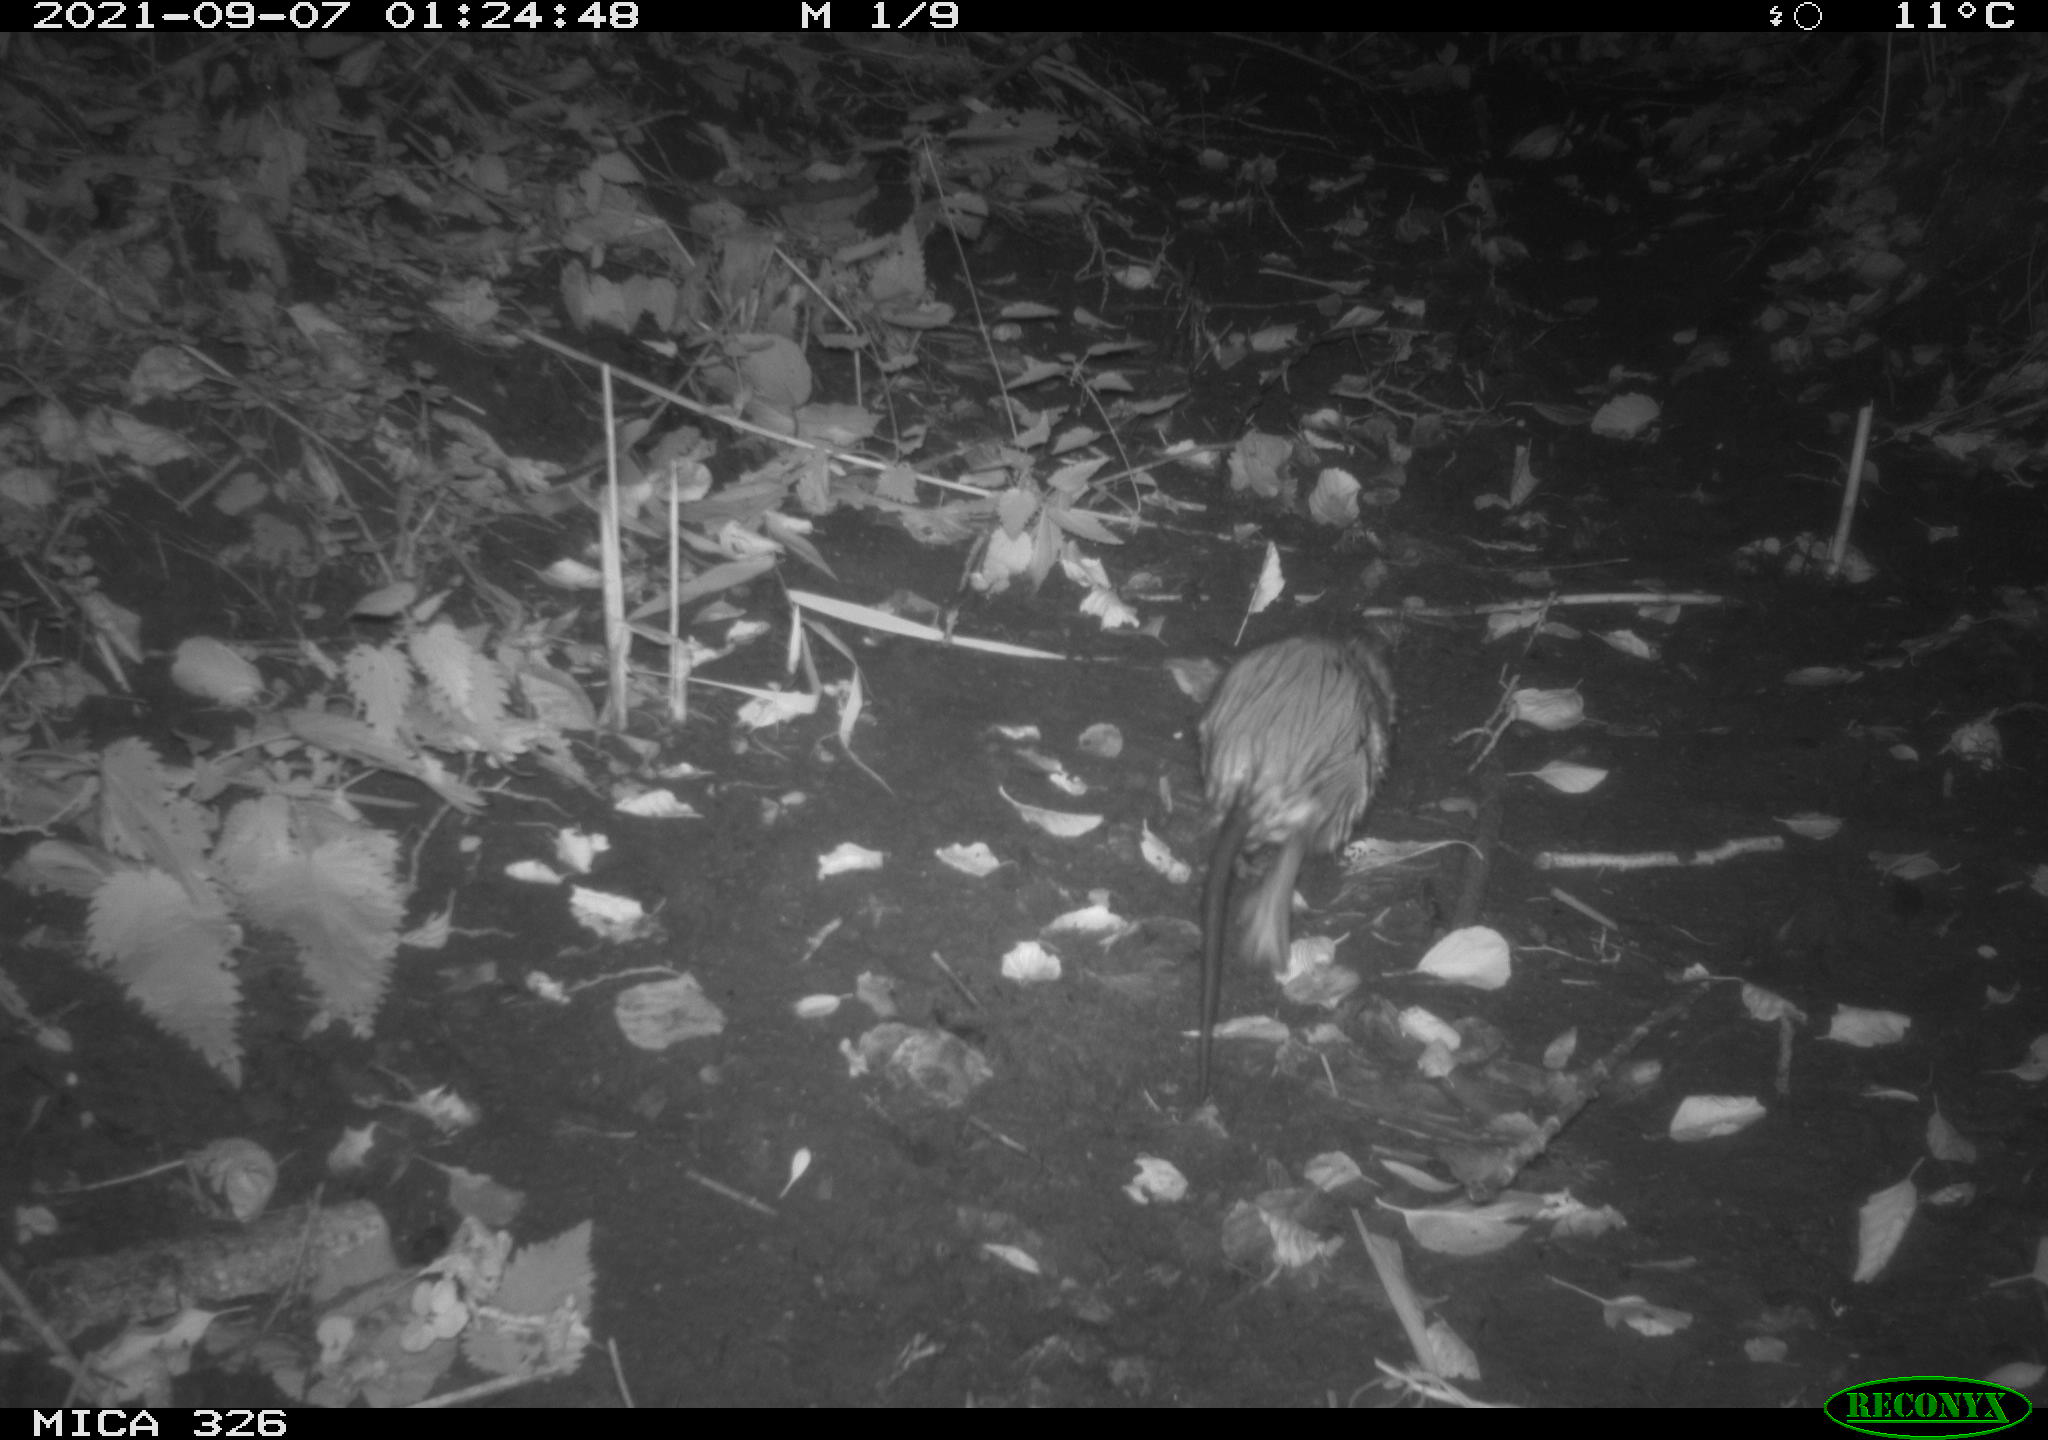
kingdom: Animalia
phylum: Chordata
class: Mammalia
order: Rodentia
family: Cricetidae
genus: Ondatra
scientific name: Ondatra zibethicus
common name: Muskrat
